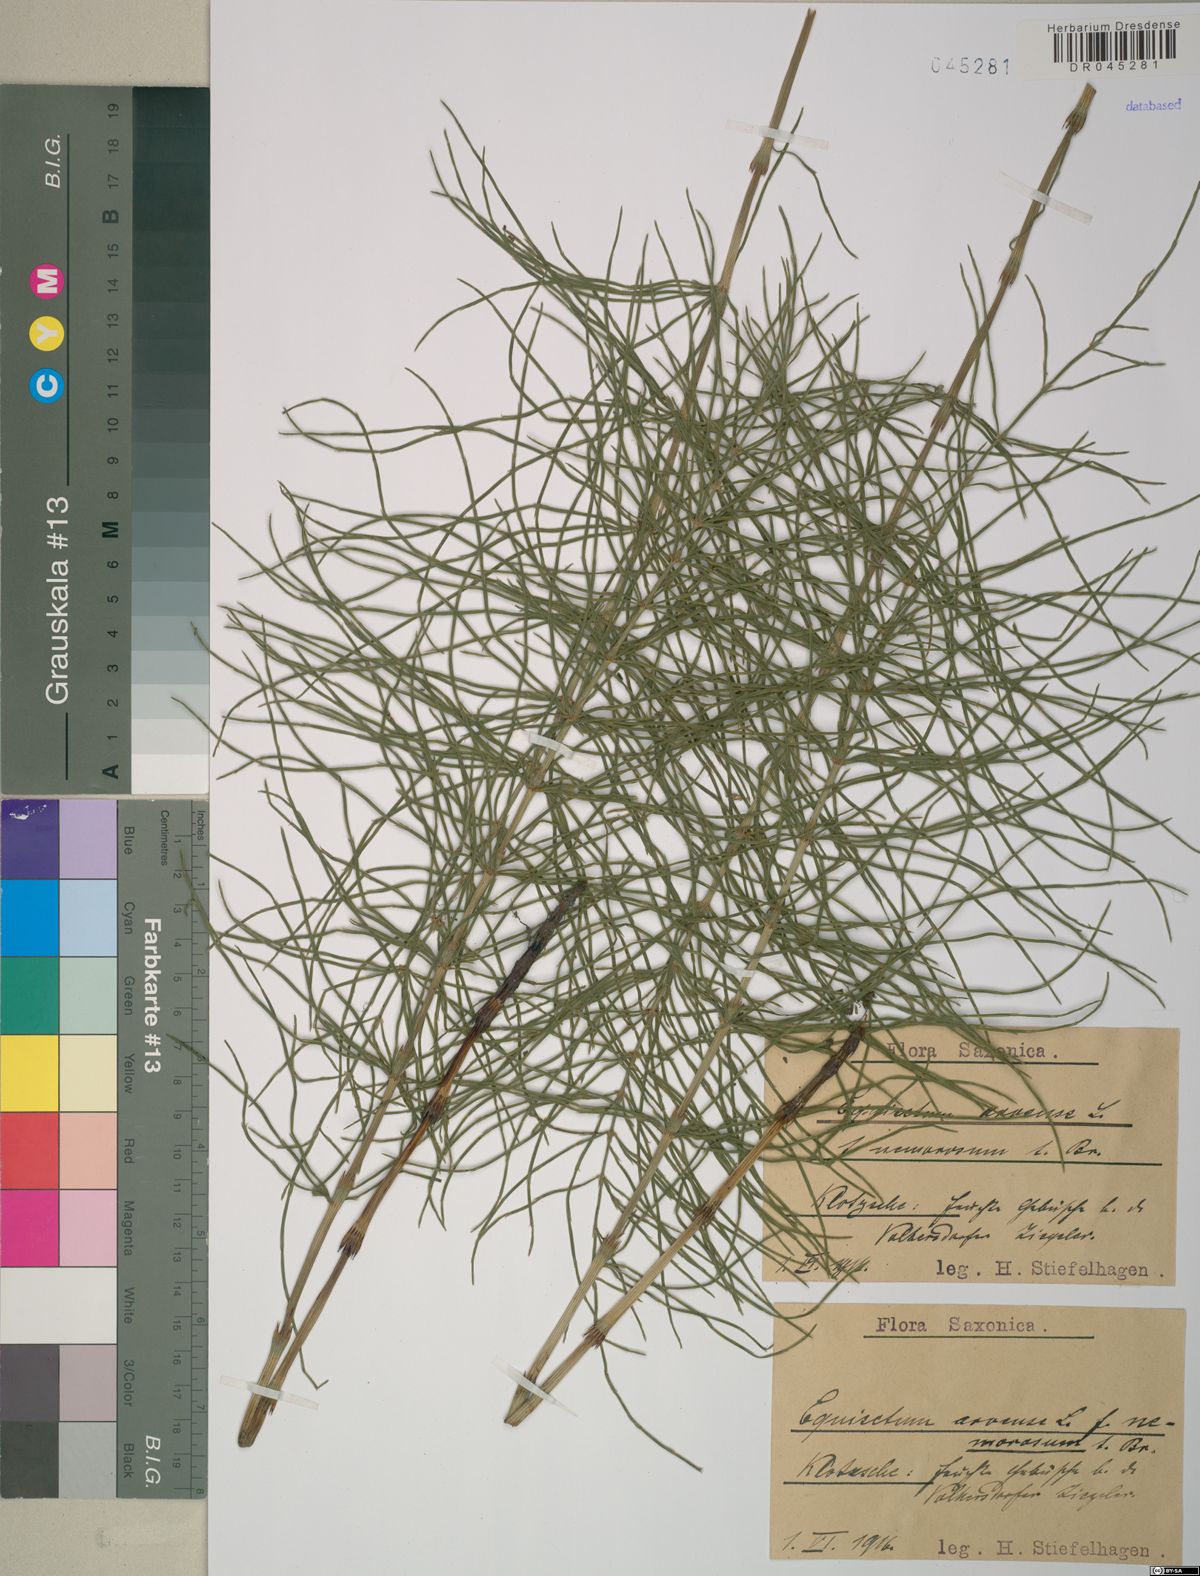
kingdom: Plantae
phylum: Tracheophyta
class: Polypodiopsida
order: Equisetales
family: Equisetaceae
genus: Equisetum
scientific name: Equisetum arvense
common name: Field horsetail
